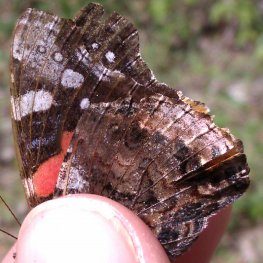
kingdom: Animalia
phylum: Arthropoda
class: Insecta
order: Lepidoptera
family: Nymphalidae
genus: Vanessa
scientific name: Vanessa atalanta
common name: Red Admiral
